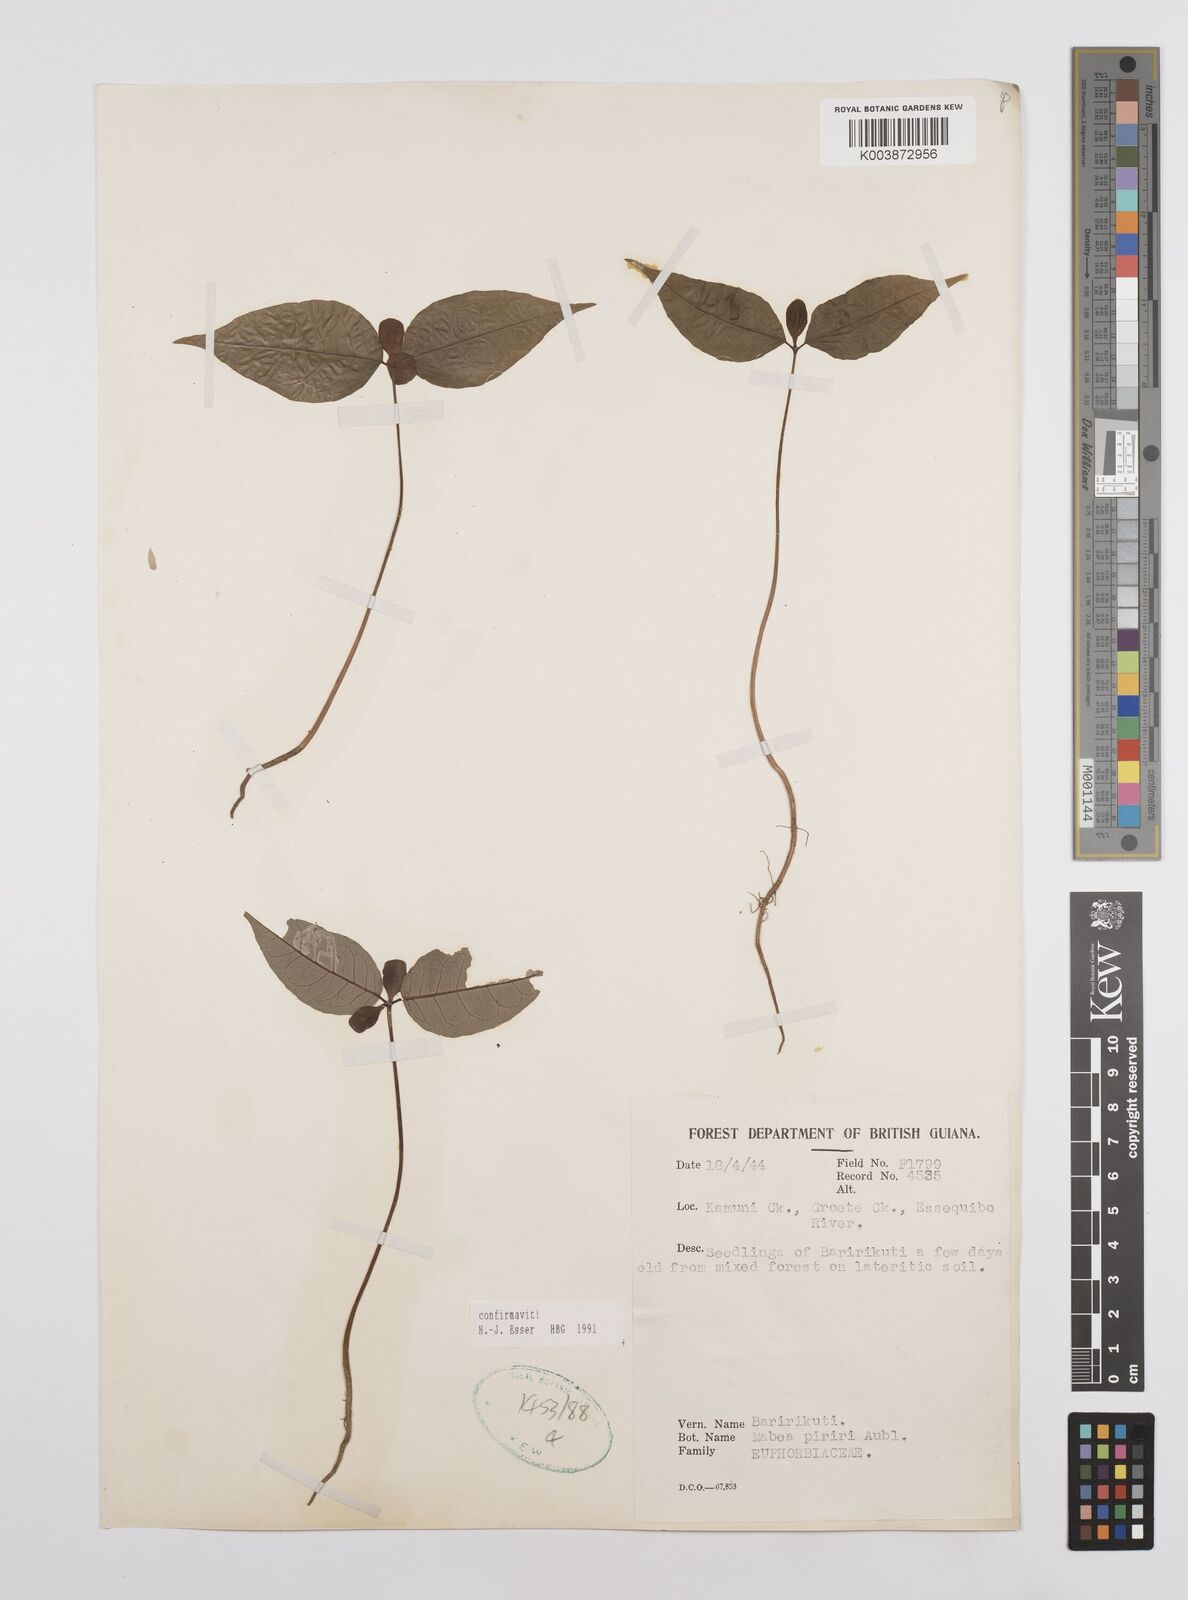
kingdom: Plantae
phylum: Tracheophyta
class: Magnoliopsida
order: Malpighiales
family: Euphorbiaceae
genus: Mabea
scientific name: Mabea piriri
